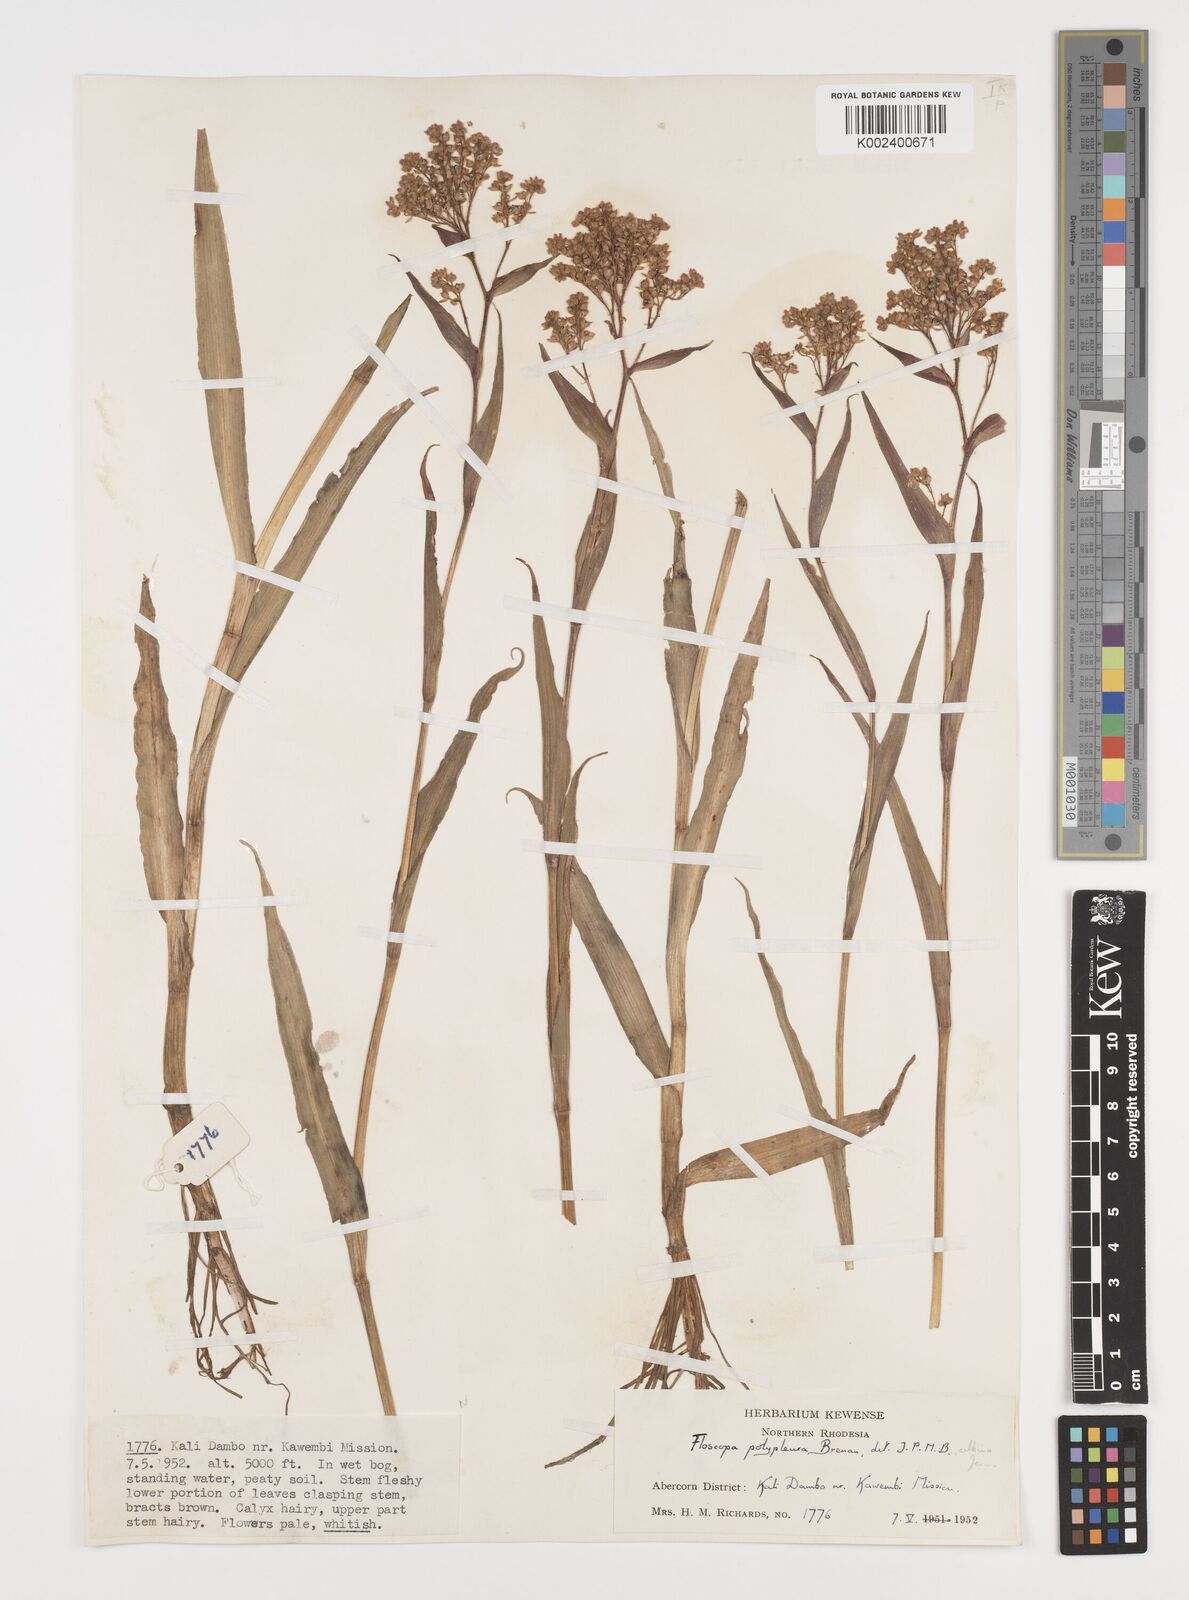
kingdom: Plantae
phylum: Tracheophyta
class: Liliopsida
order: Commelinales
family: Commelinaceae
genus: Floscopa
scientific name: Floscopa polypleura
